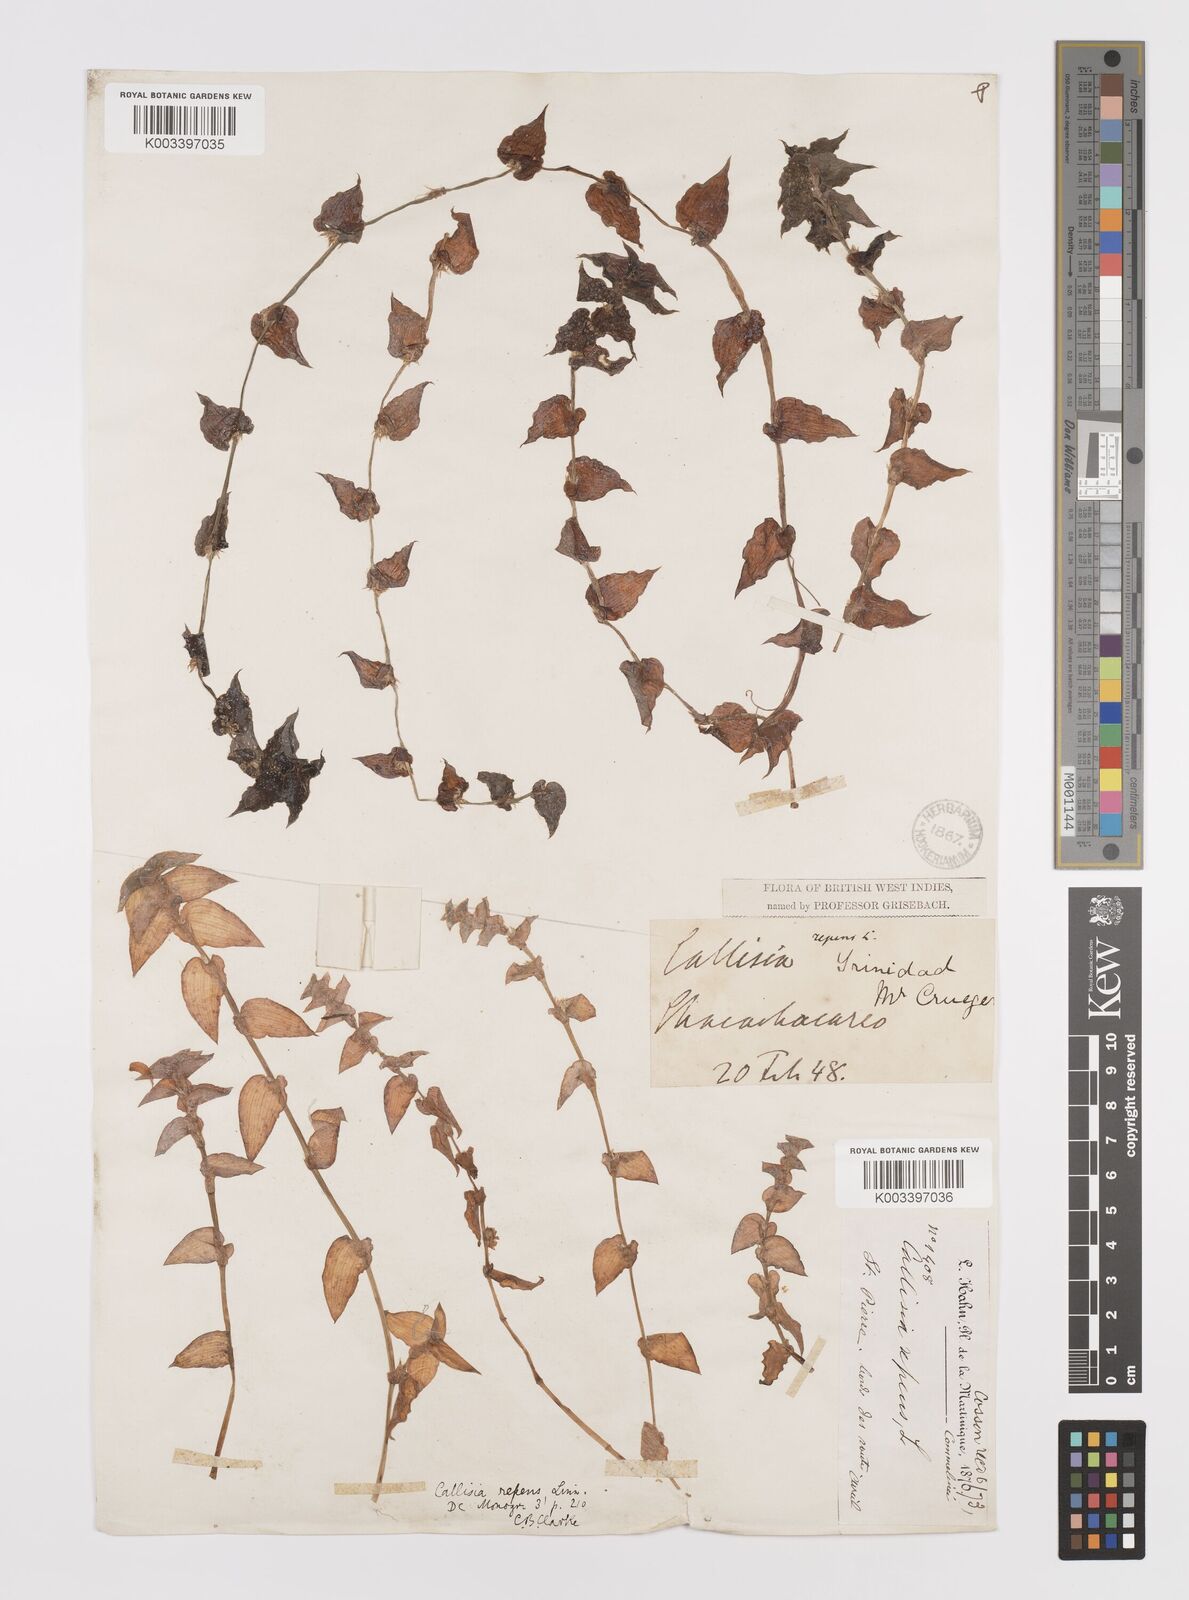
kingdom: Plantae
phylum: Tracheophyta
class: Liliopsida
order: Commelinales
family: Commelinaceae
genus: Callisia
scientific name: Callisia repens
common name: Creeping inchplant
